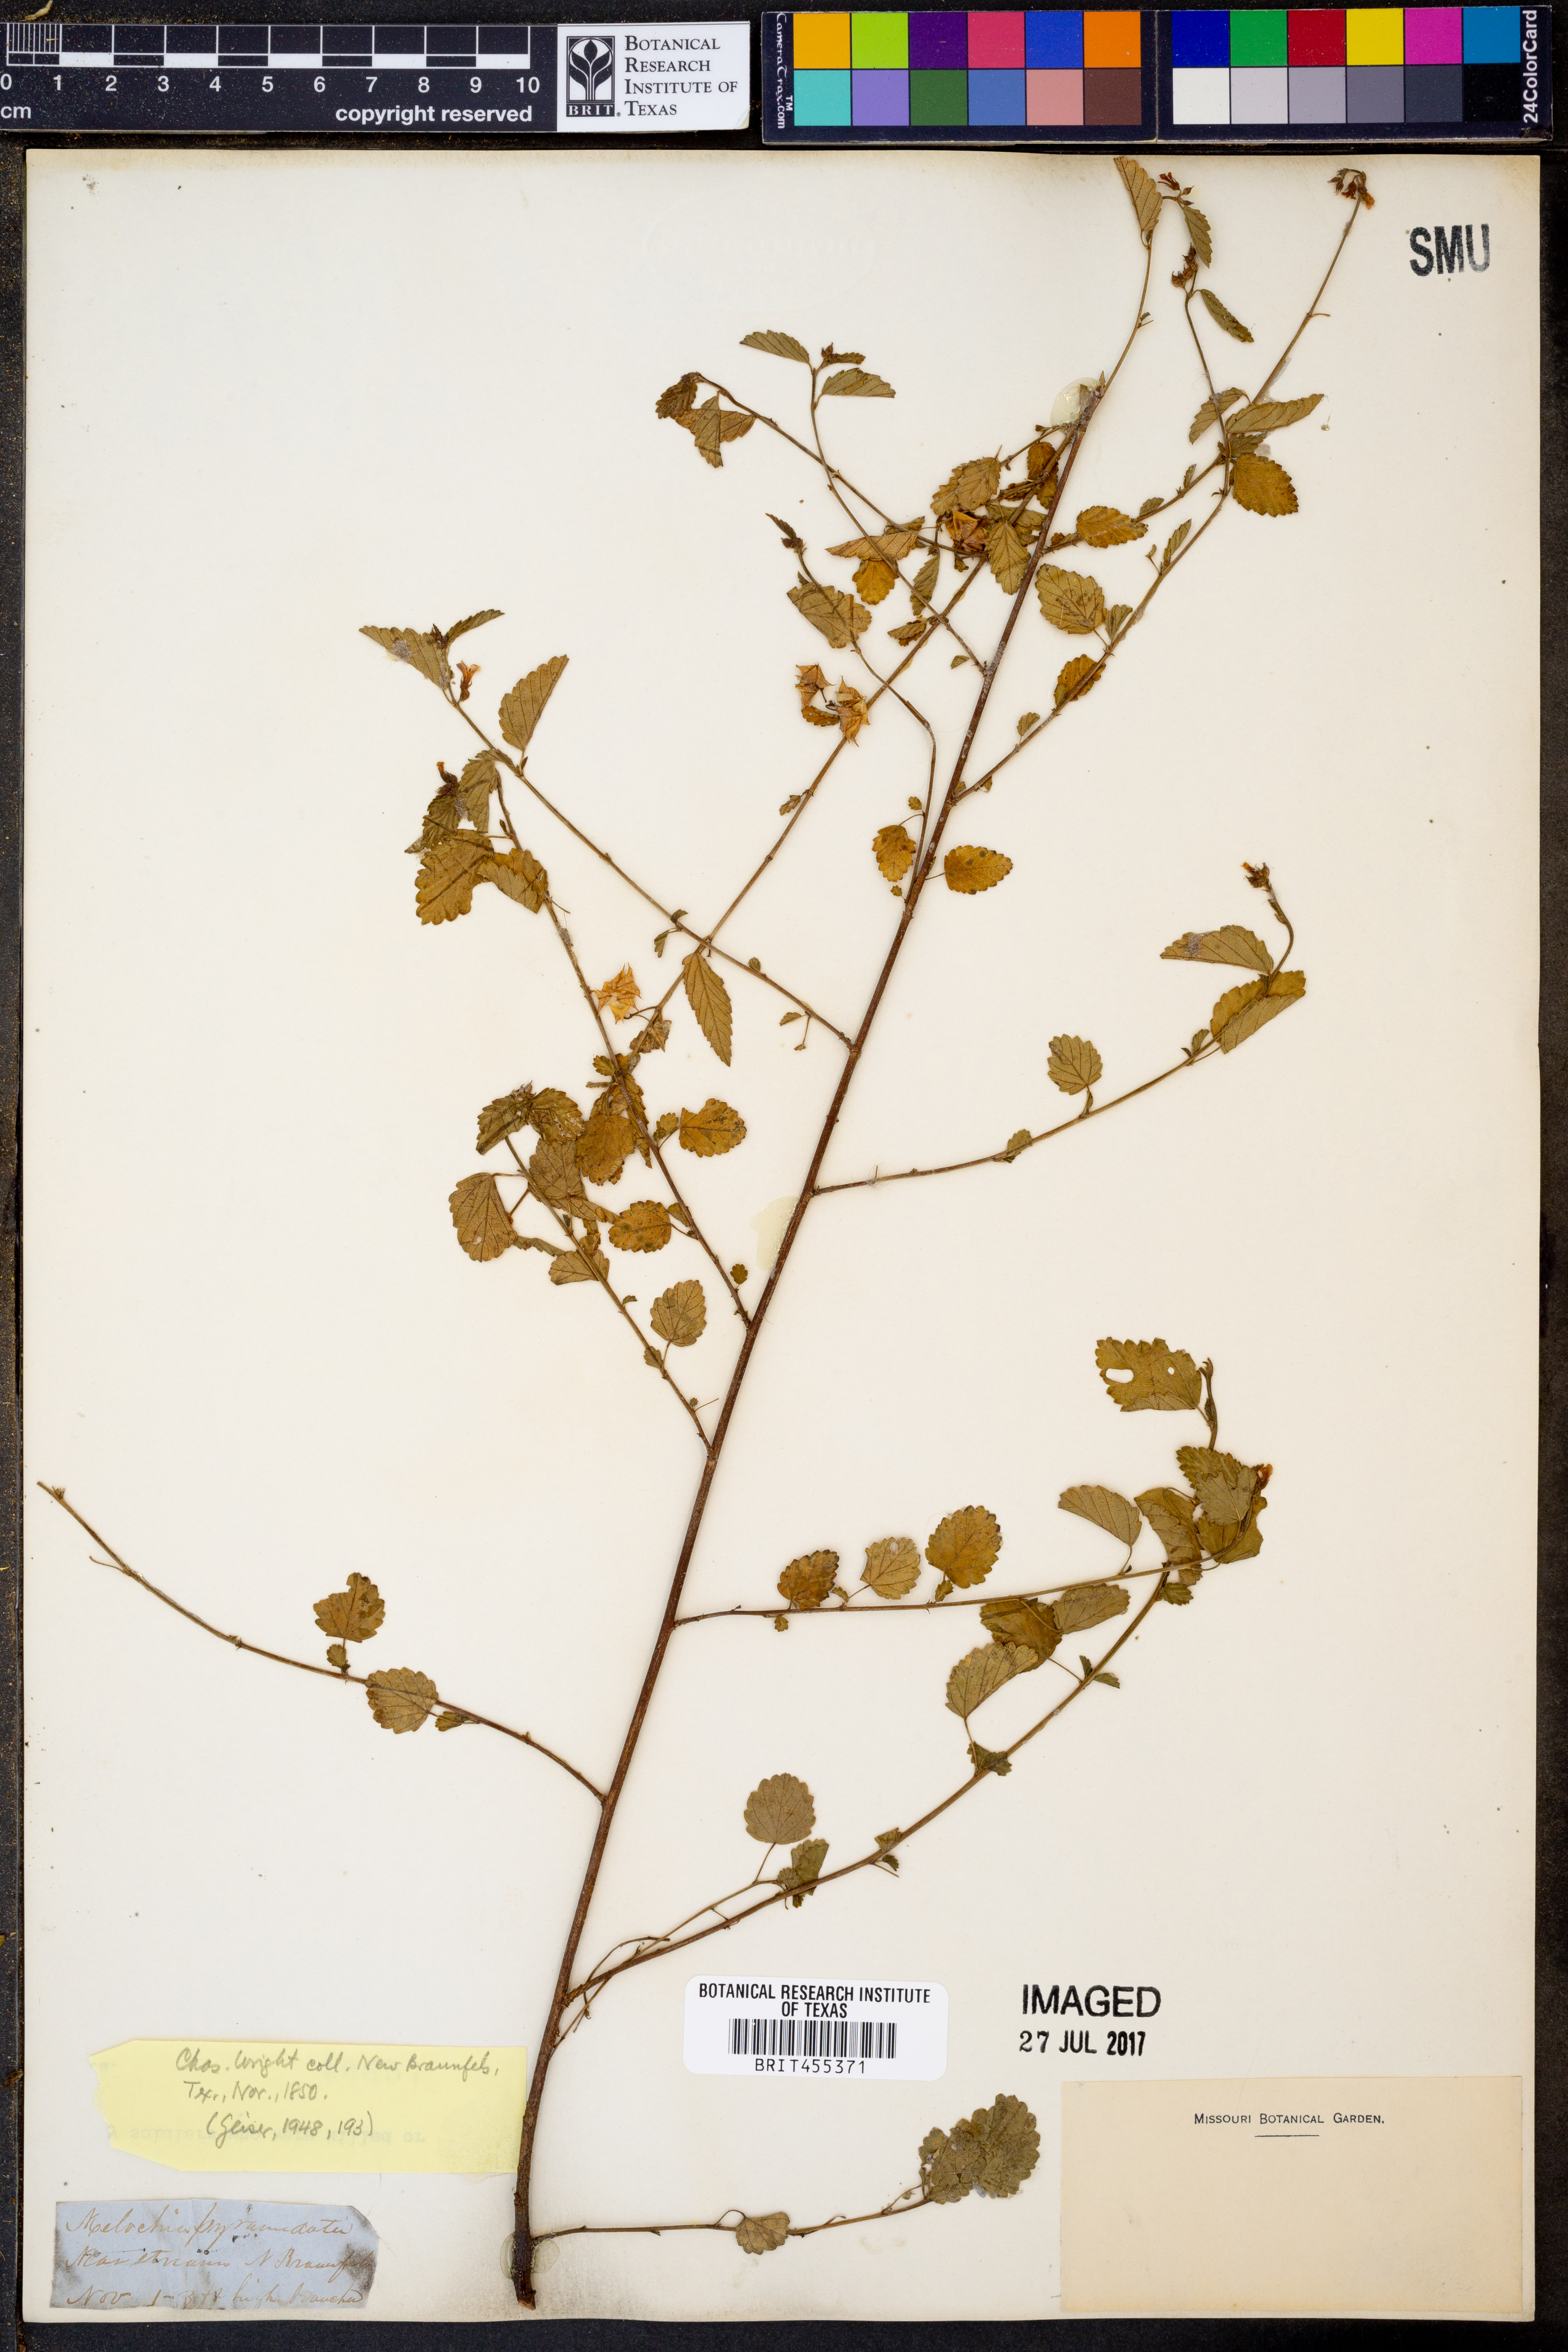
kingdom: Plantae
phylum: Tracheophyta
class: Magnoliopsida
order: Malvales
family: Malvaceae
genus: Melochia
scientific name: Melochia pyramidata
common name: Pyramidflower
